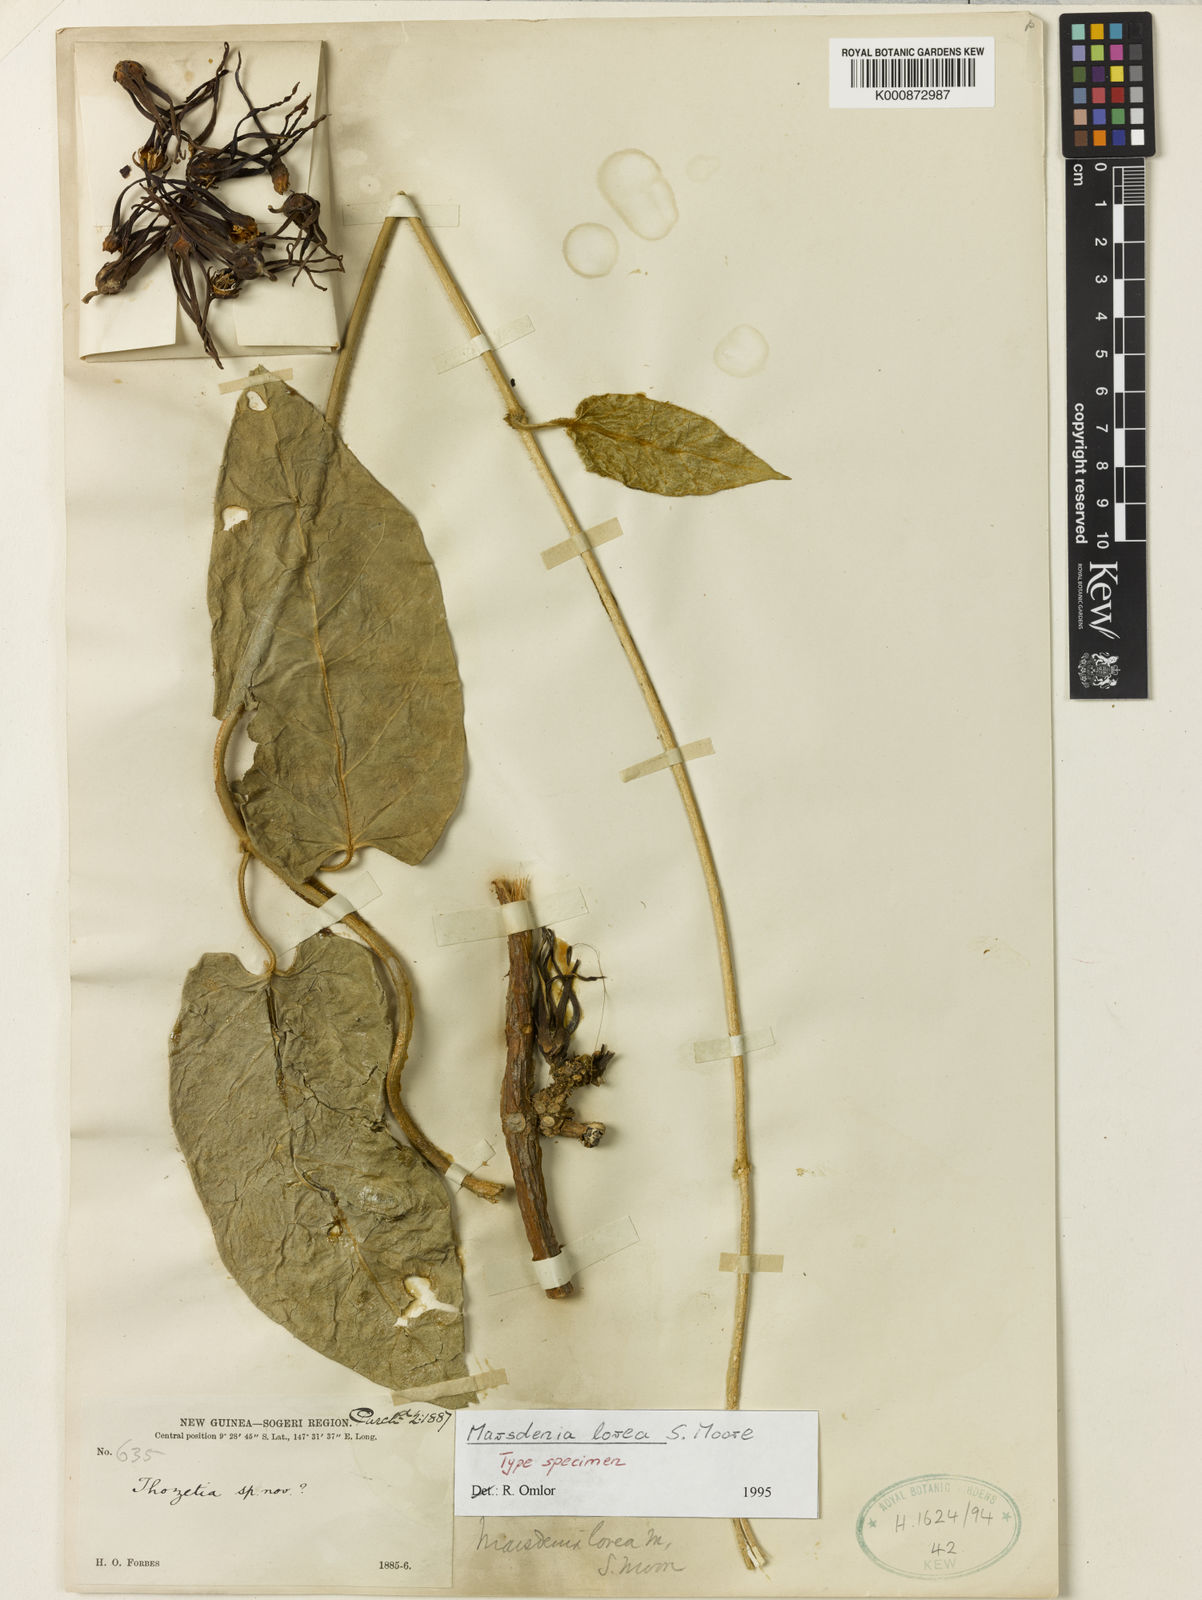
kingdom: Plantae
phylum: Tracheophyta
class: Magnoliopsida
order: Gentianales
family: Apocynaceae
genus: Leichhardtia
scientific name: Leichhardtia lorea
